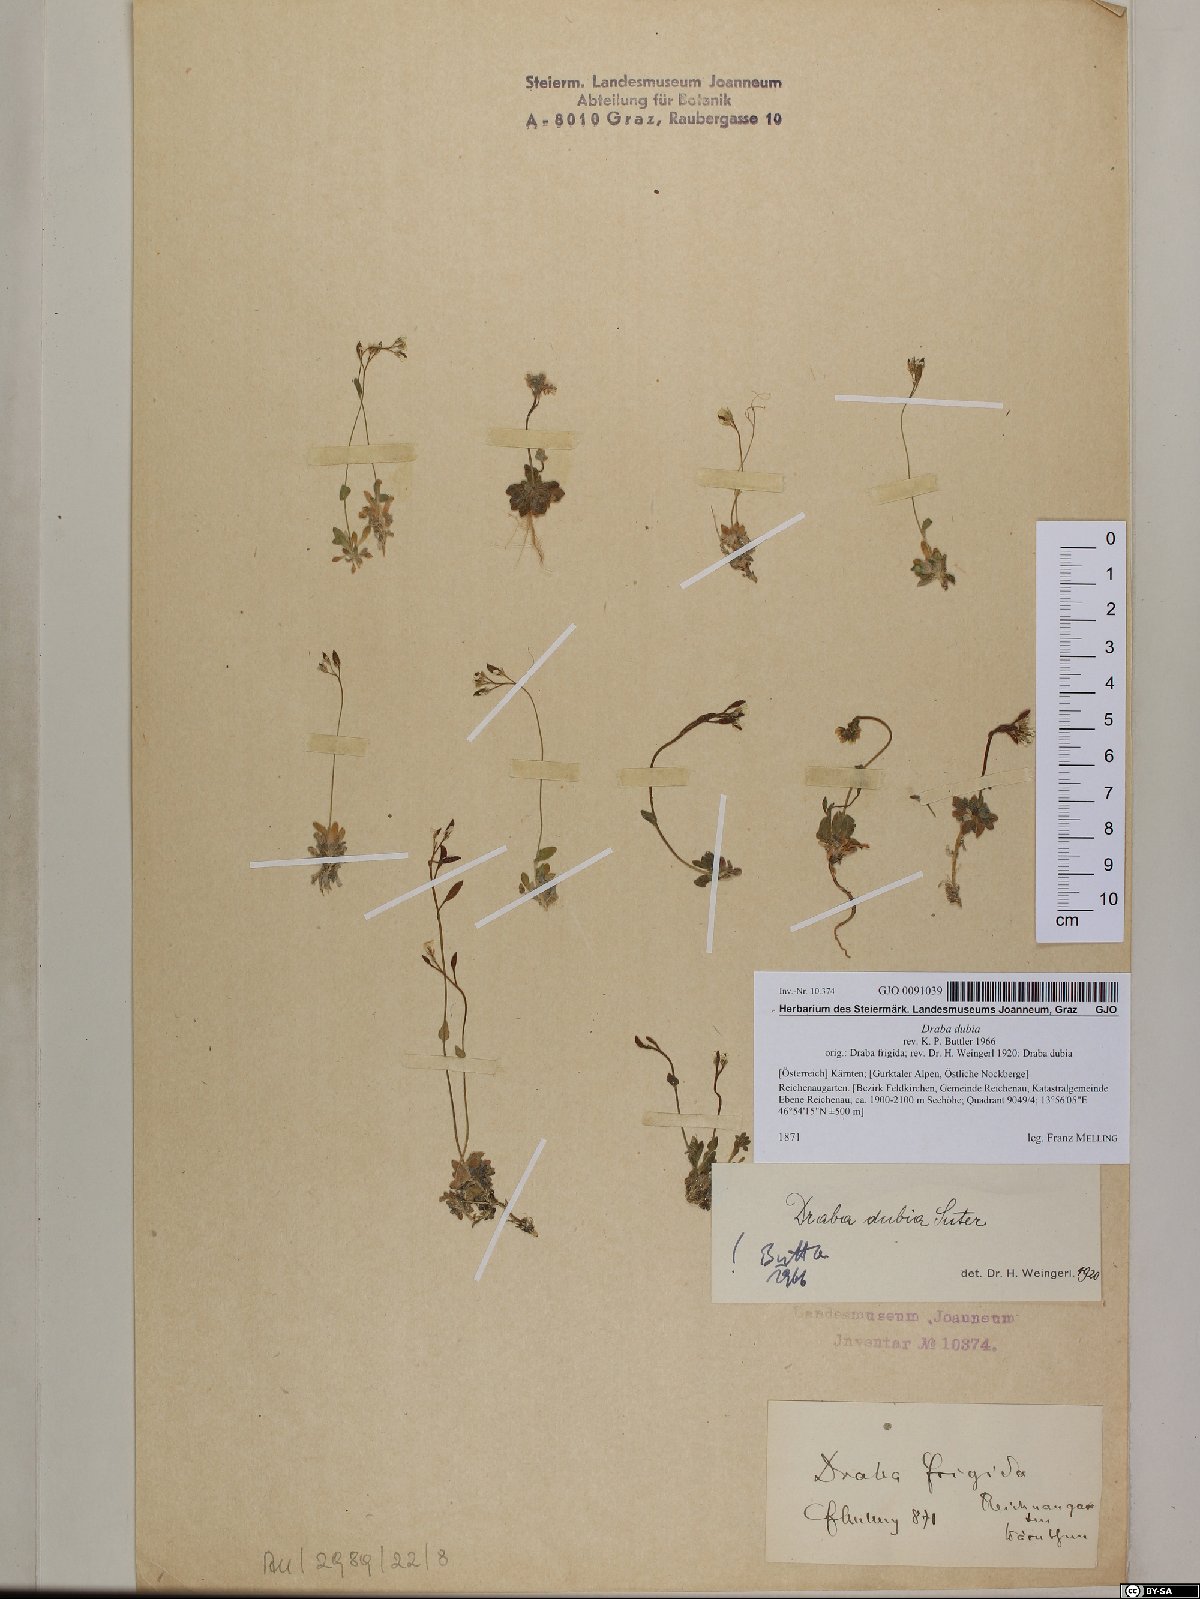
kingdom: Plantae
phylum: Tracheophyta
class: Magnoliopsida
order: Brassicales
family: Brassicaceae
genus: Draba
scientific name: Draba dubia
